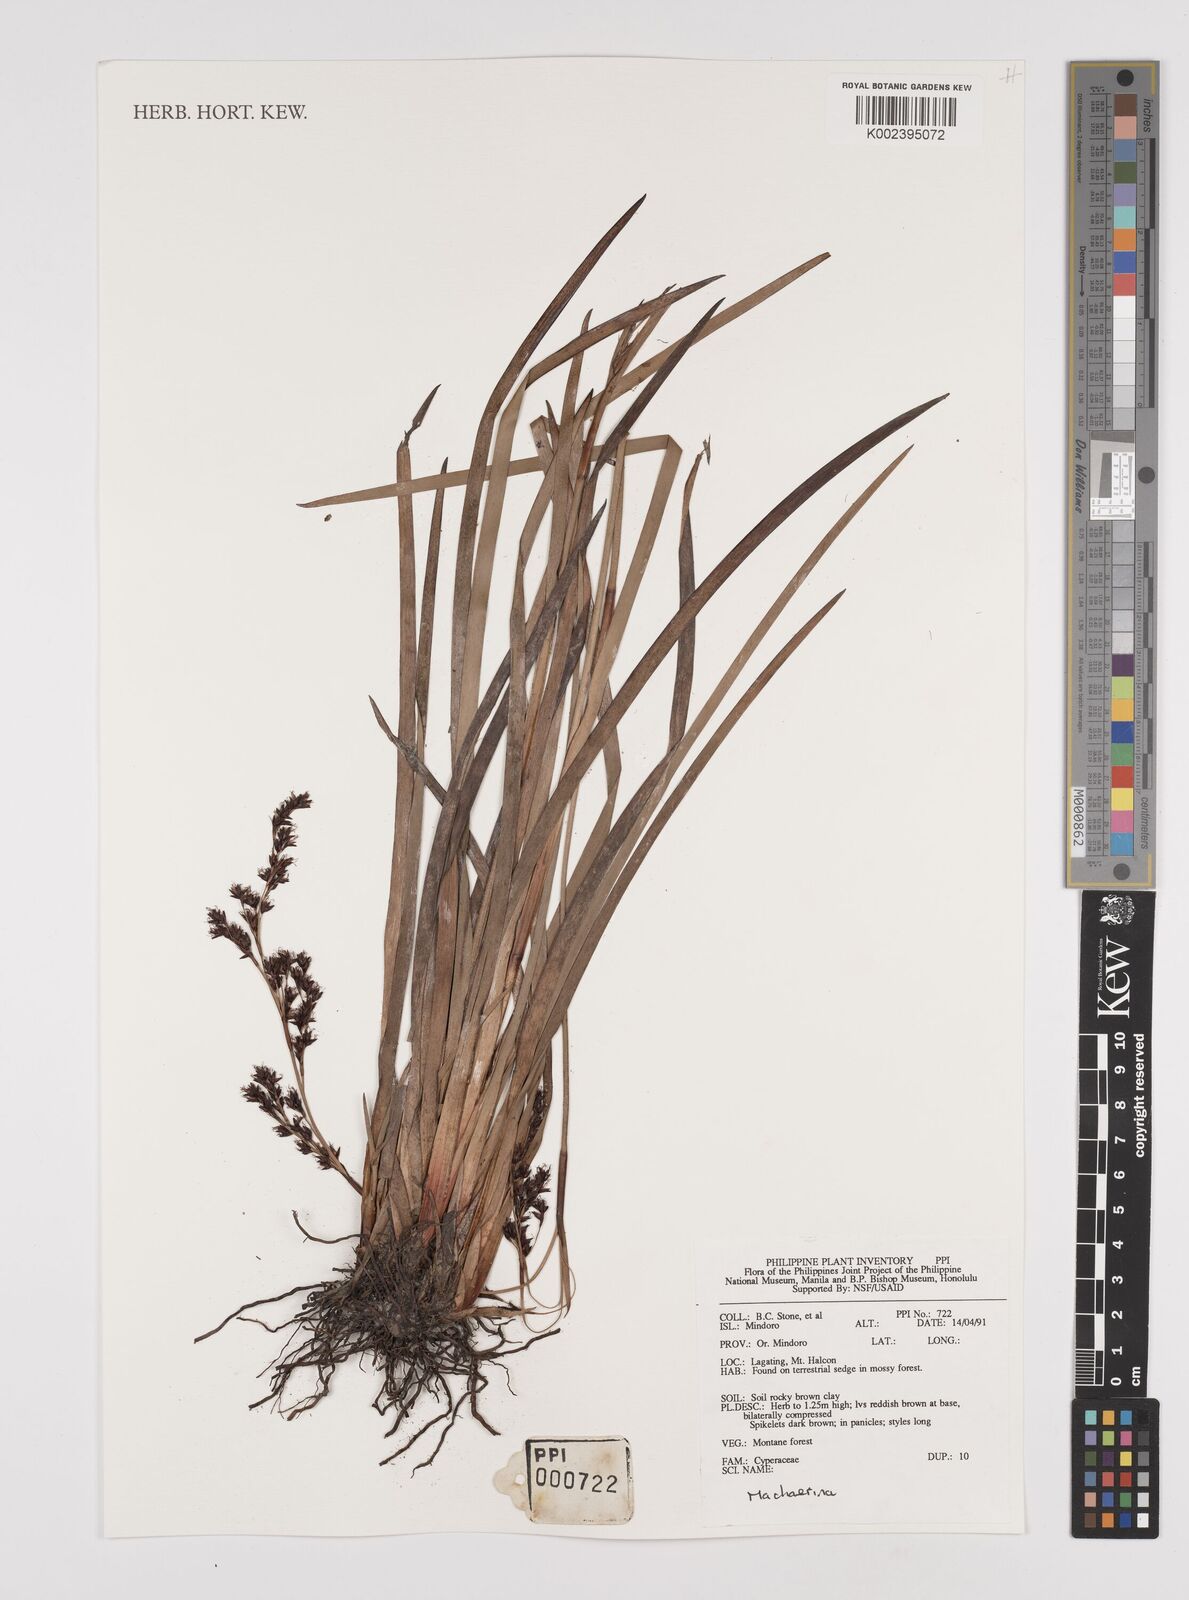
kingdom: Plantae
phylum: Tracheophyta
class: Liliopsida
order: Poales
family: Cyperaceae
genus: Machaerina
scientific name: Machaerina
